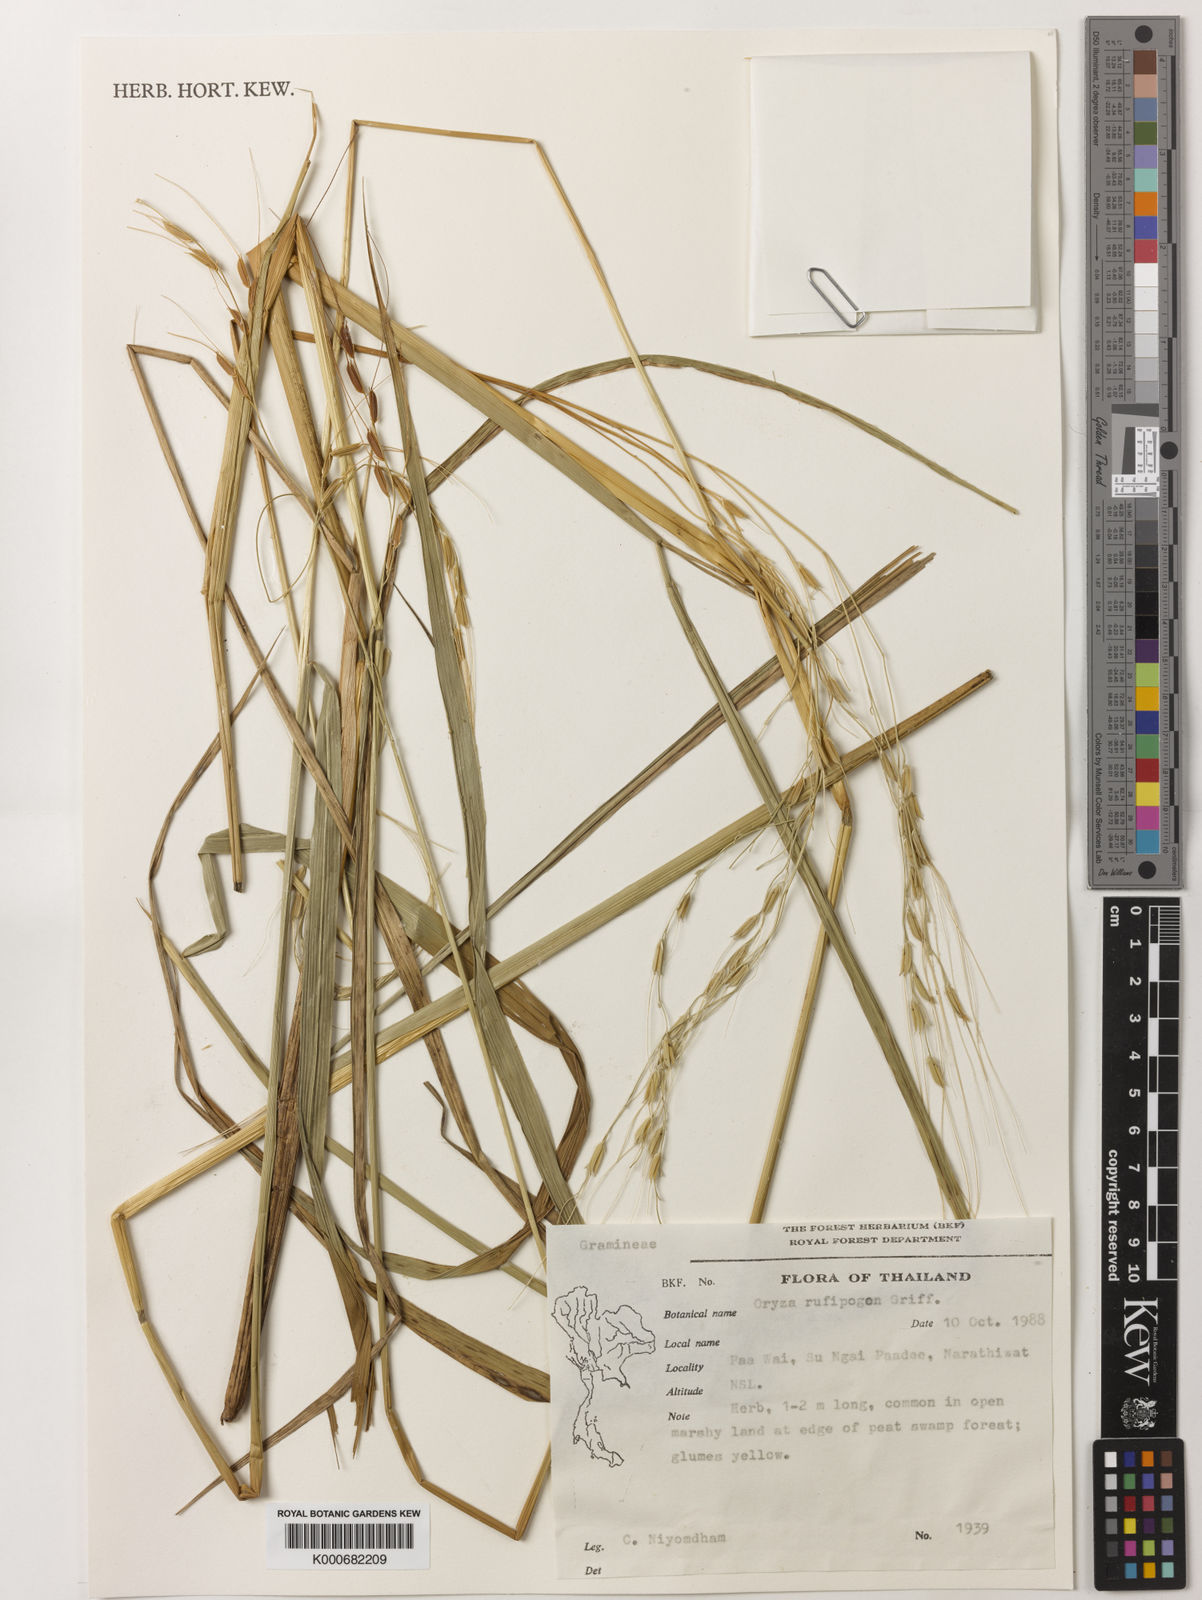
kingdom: Plantae
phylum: Tracheophyta
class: Liliopsida
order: Poales
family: Poaceae
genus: Oryza
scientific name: Oryza rufipogon
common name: Red rice
